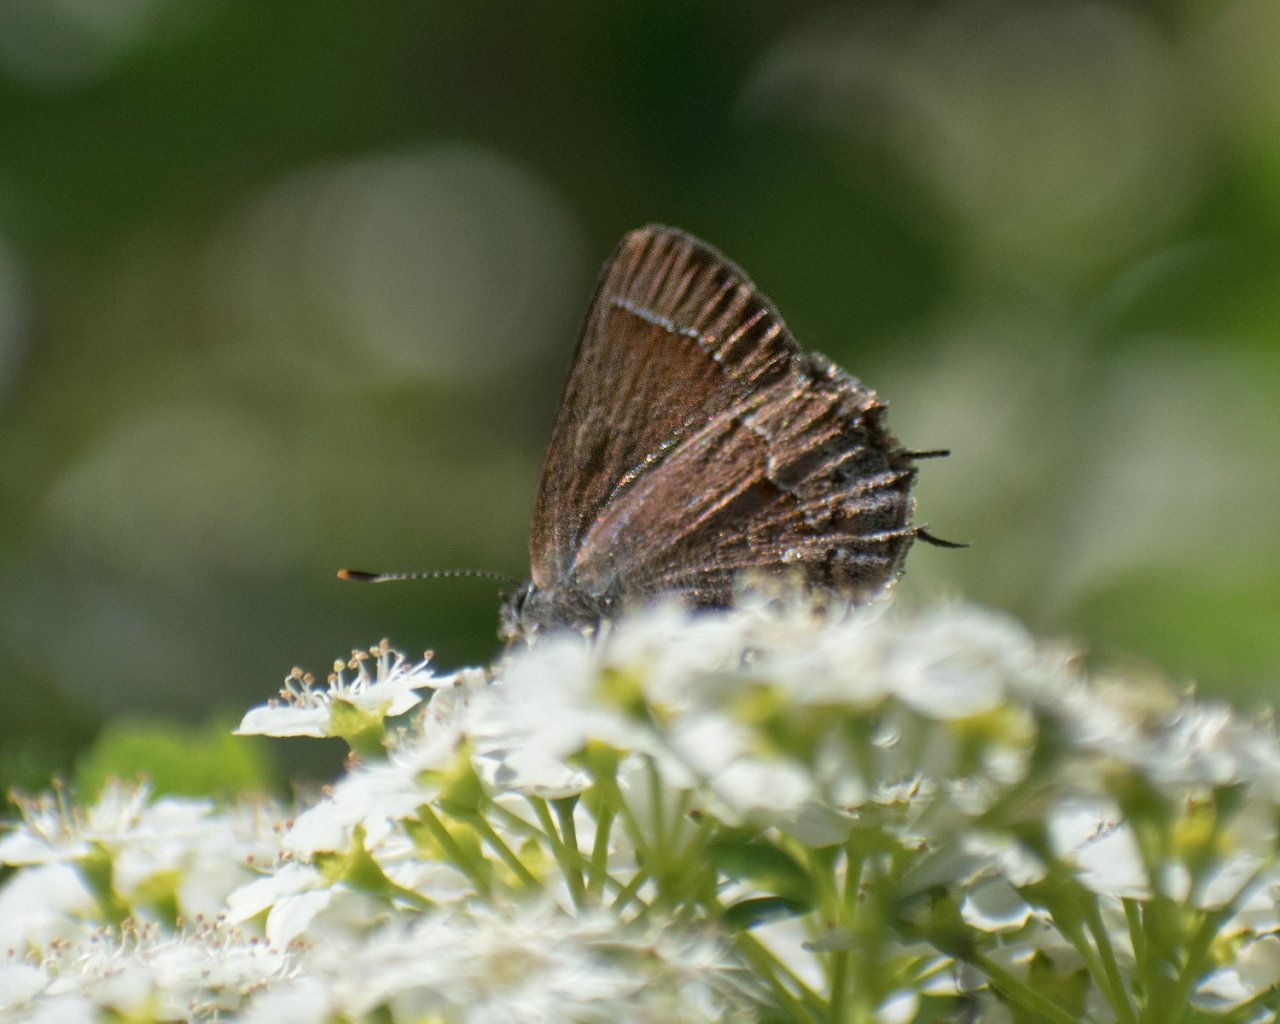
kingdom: Animalia
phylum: Arthropoda
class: Insecta
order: Lepidoptera
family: Lycaenidae
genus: Mitoura
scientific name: Mitoura nelsoni
